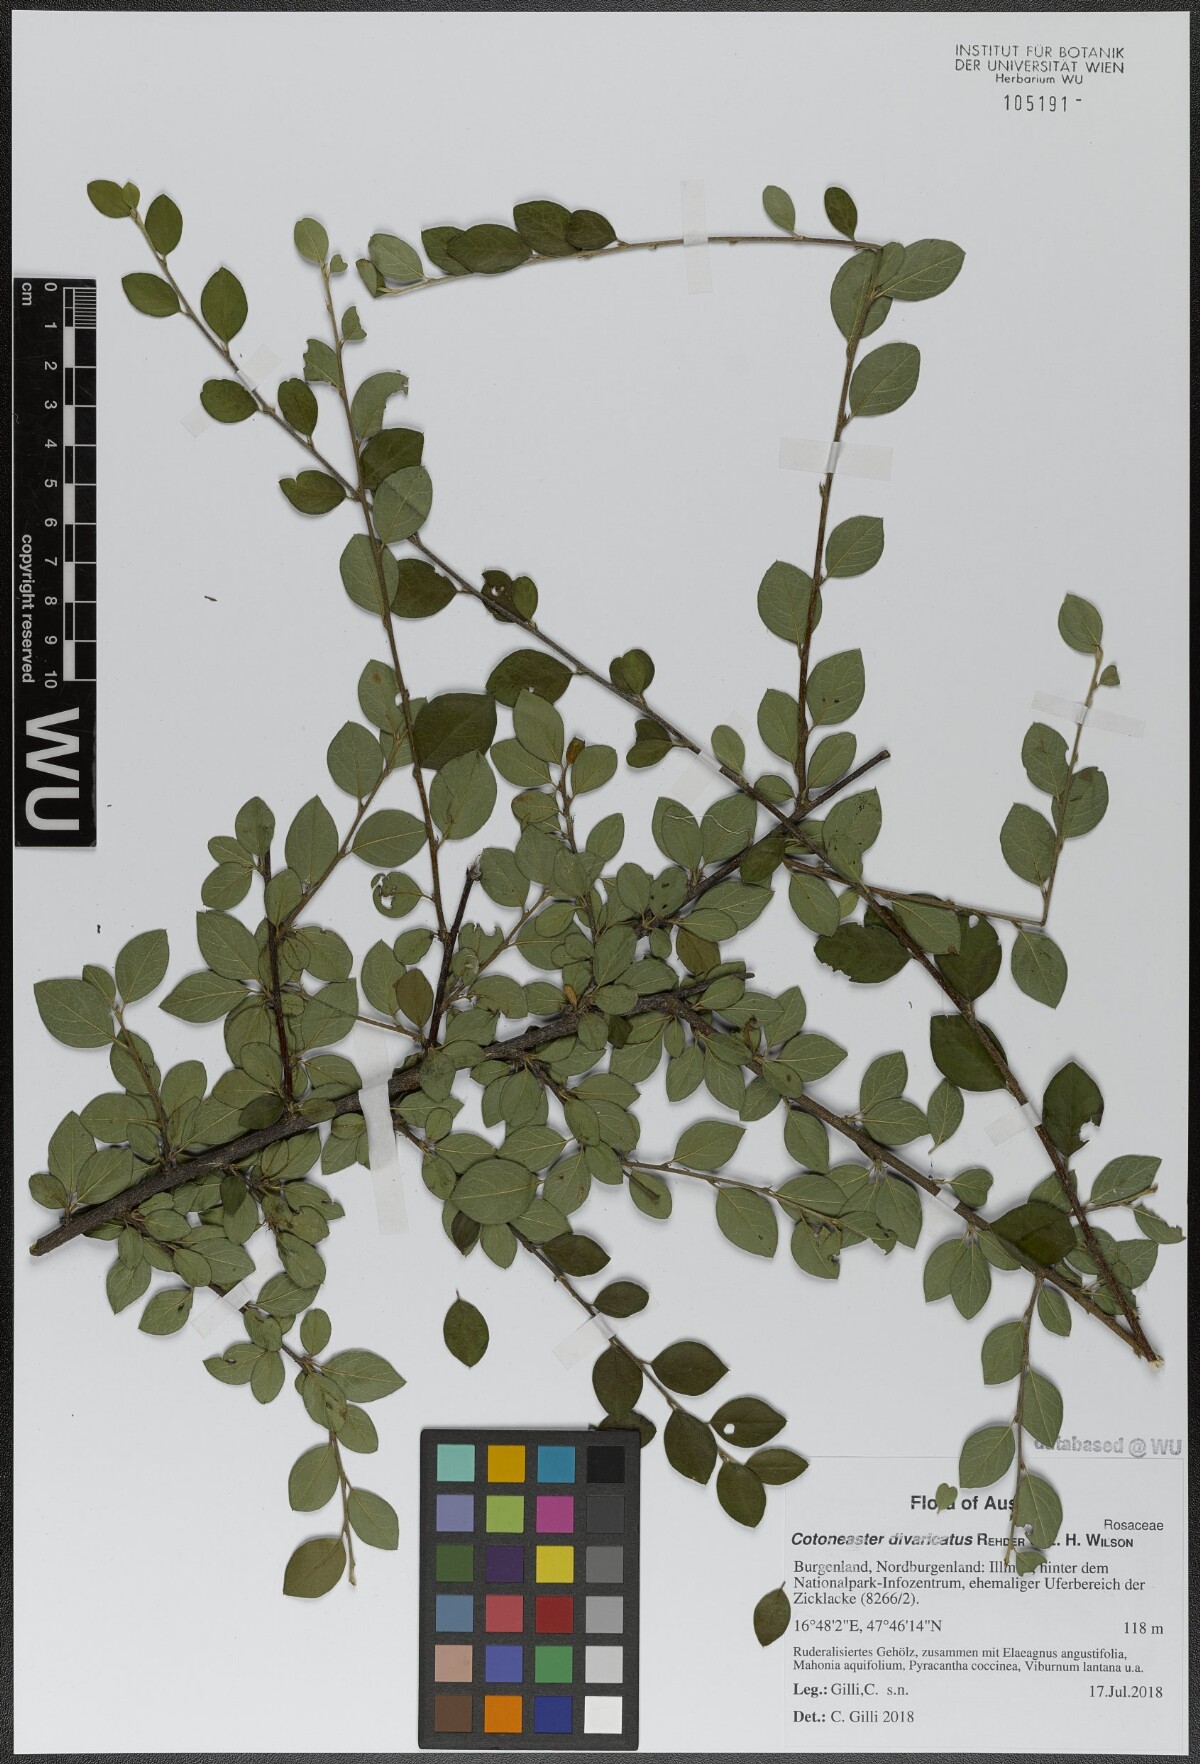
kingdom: Plantae
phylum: Tracheophyta
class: Magnoliopsida
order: Rosales
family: Rosaceae
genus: Cotoneaster
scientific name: Cotoneaster divaricatus
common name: Spreading cotoneaster
